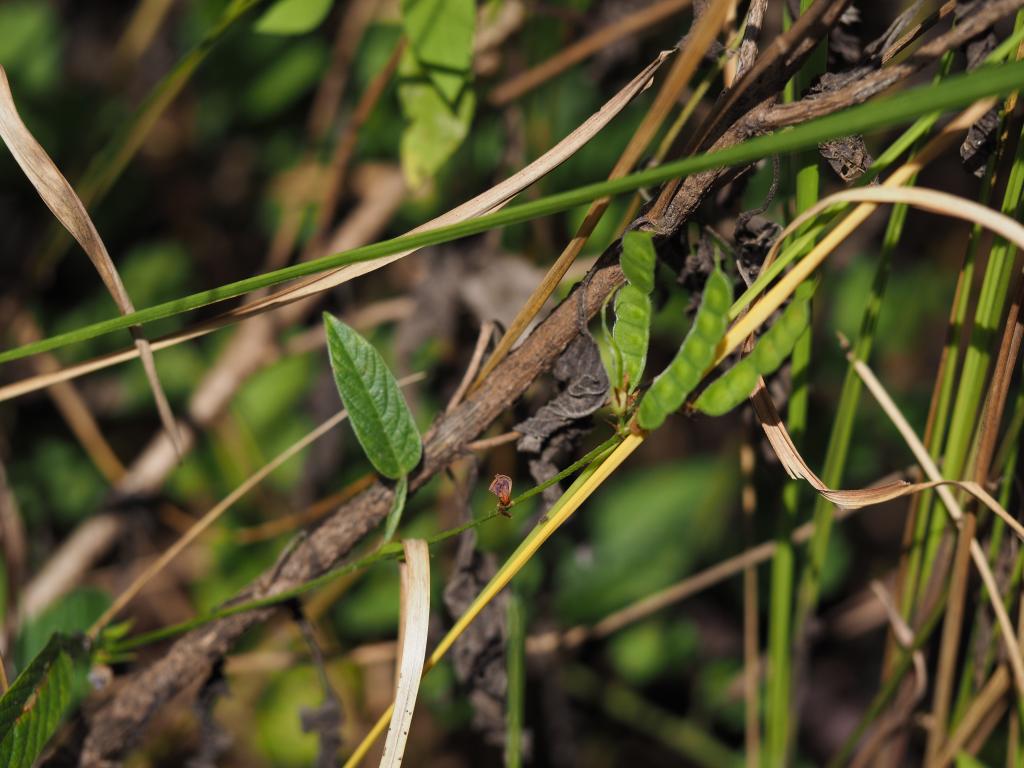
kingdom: Plantae
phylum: Tracheophyta
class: Magnoliopsida
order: Fabales
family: Fabaceae
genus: Tadehagi
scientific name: Tadehagi pseudotriquetrum
